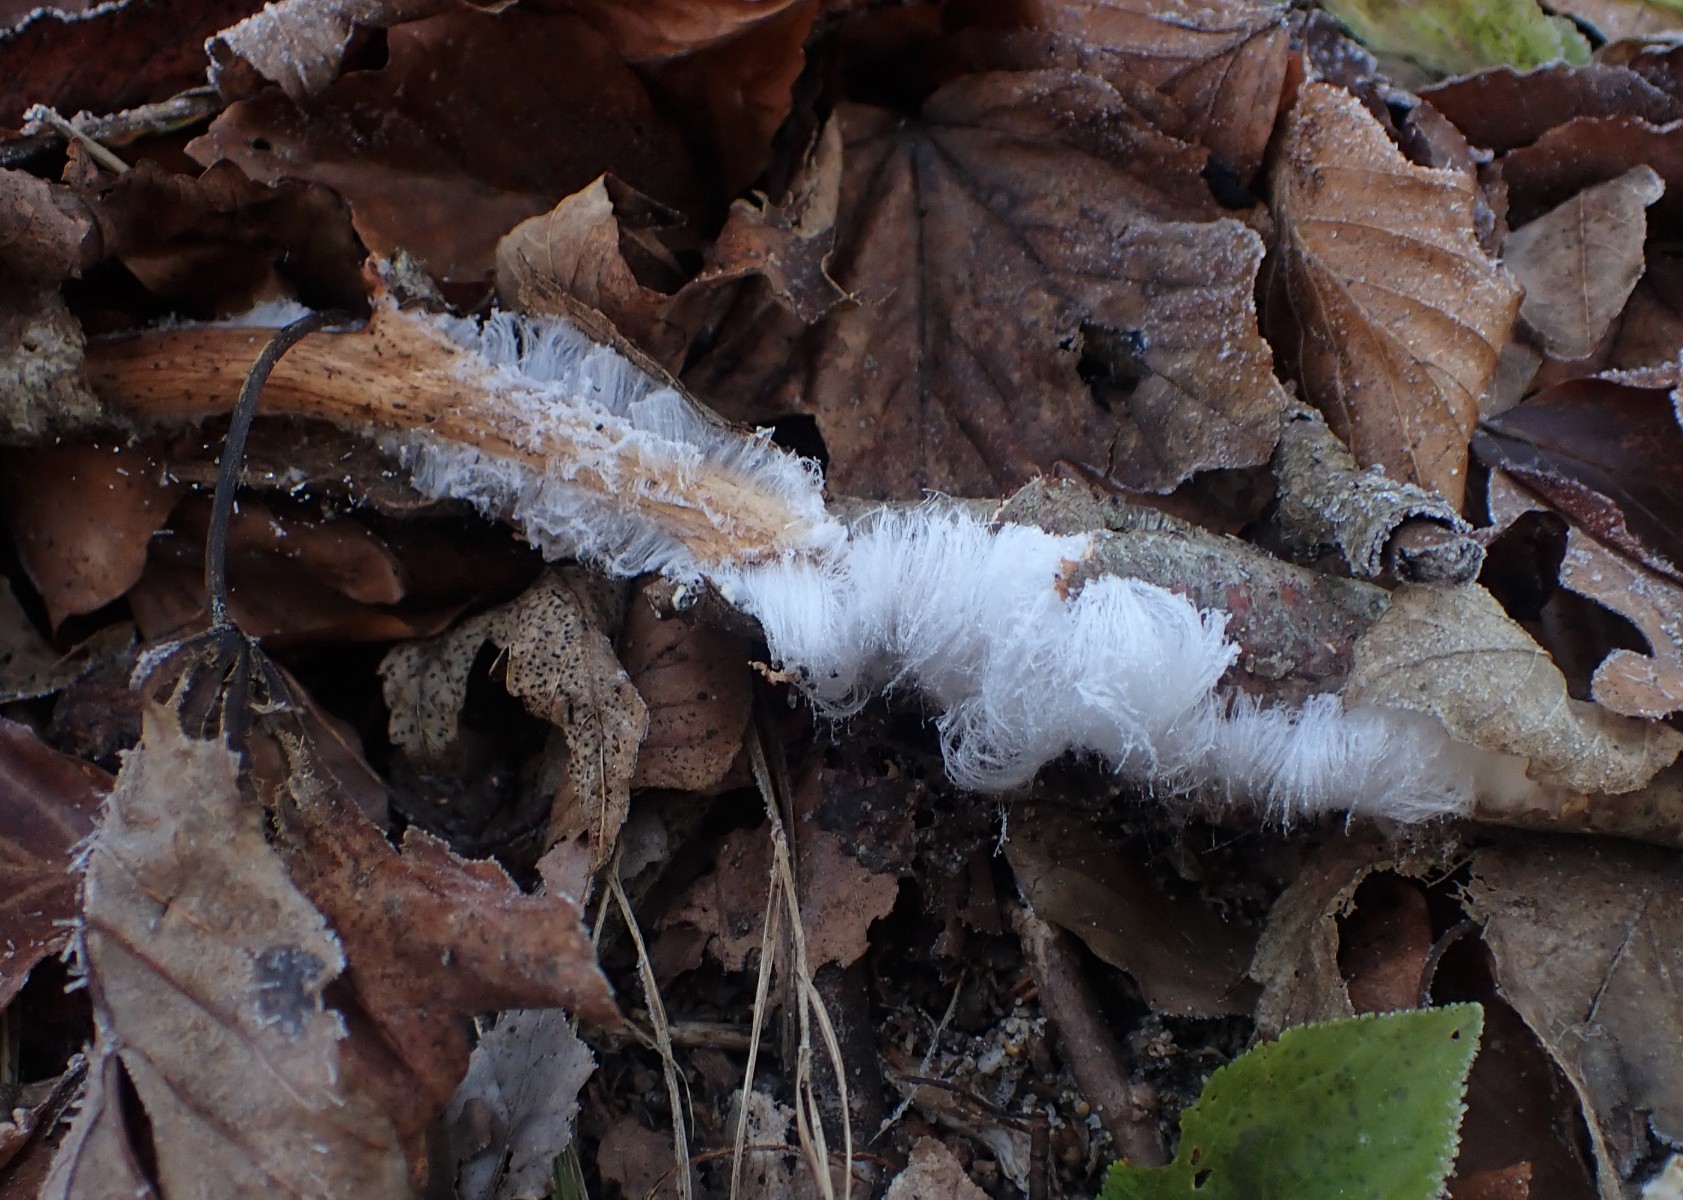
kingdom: Fungi
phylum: Basidiomycota
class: Tremellomycetes
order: Tremellales
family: Exidiaceae
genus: Exidiopsis
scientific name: Exidiopsis effusa
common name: smuk bævrehinde
